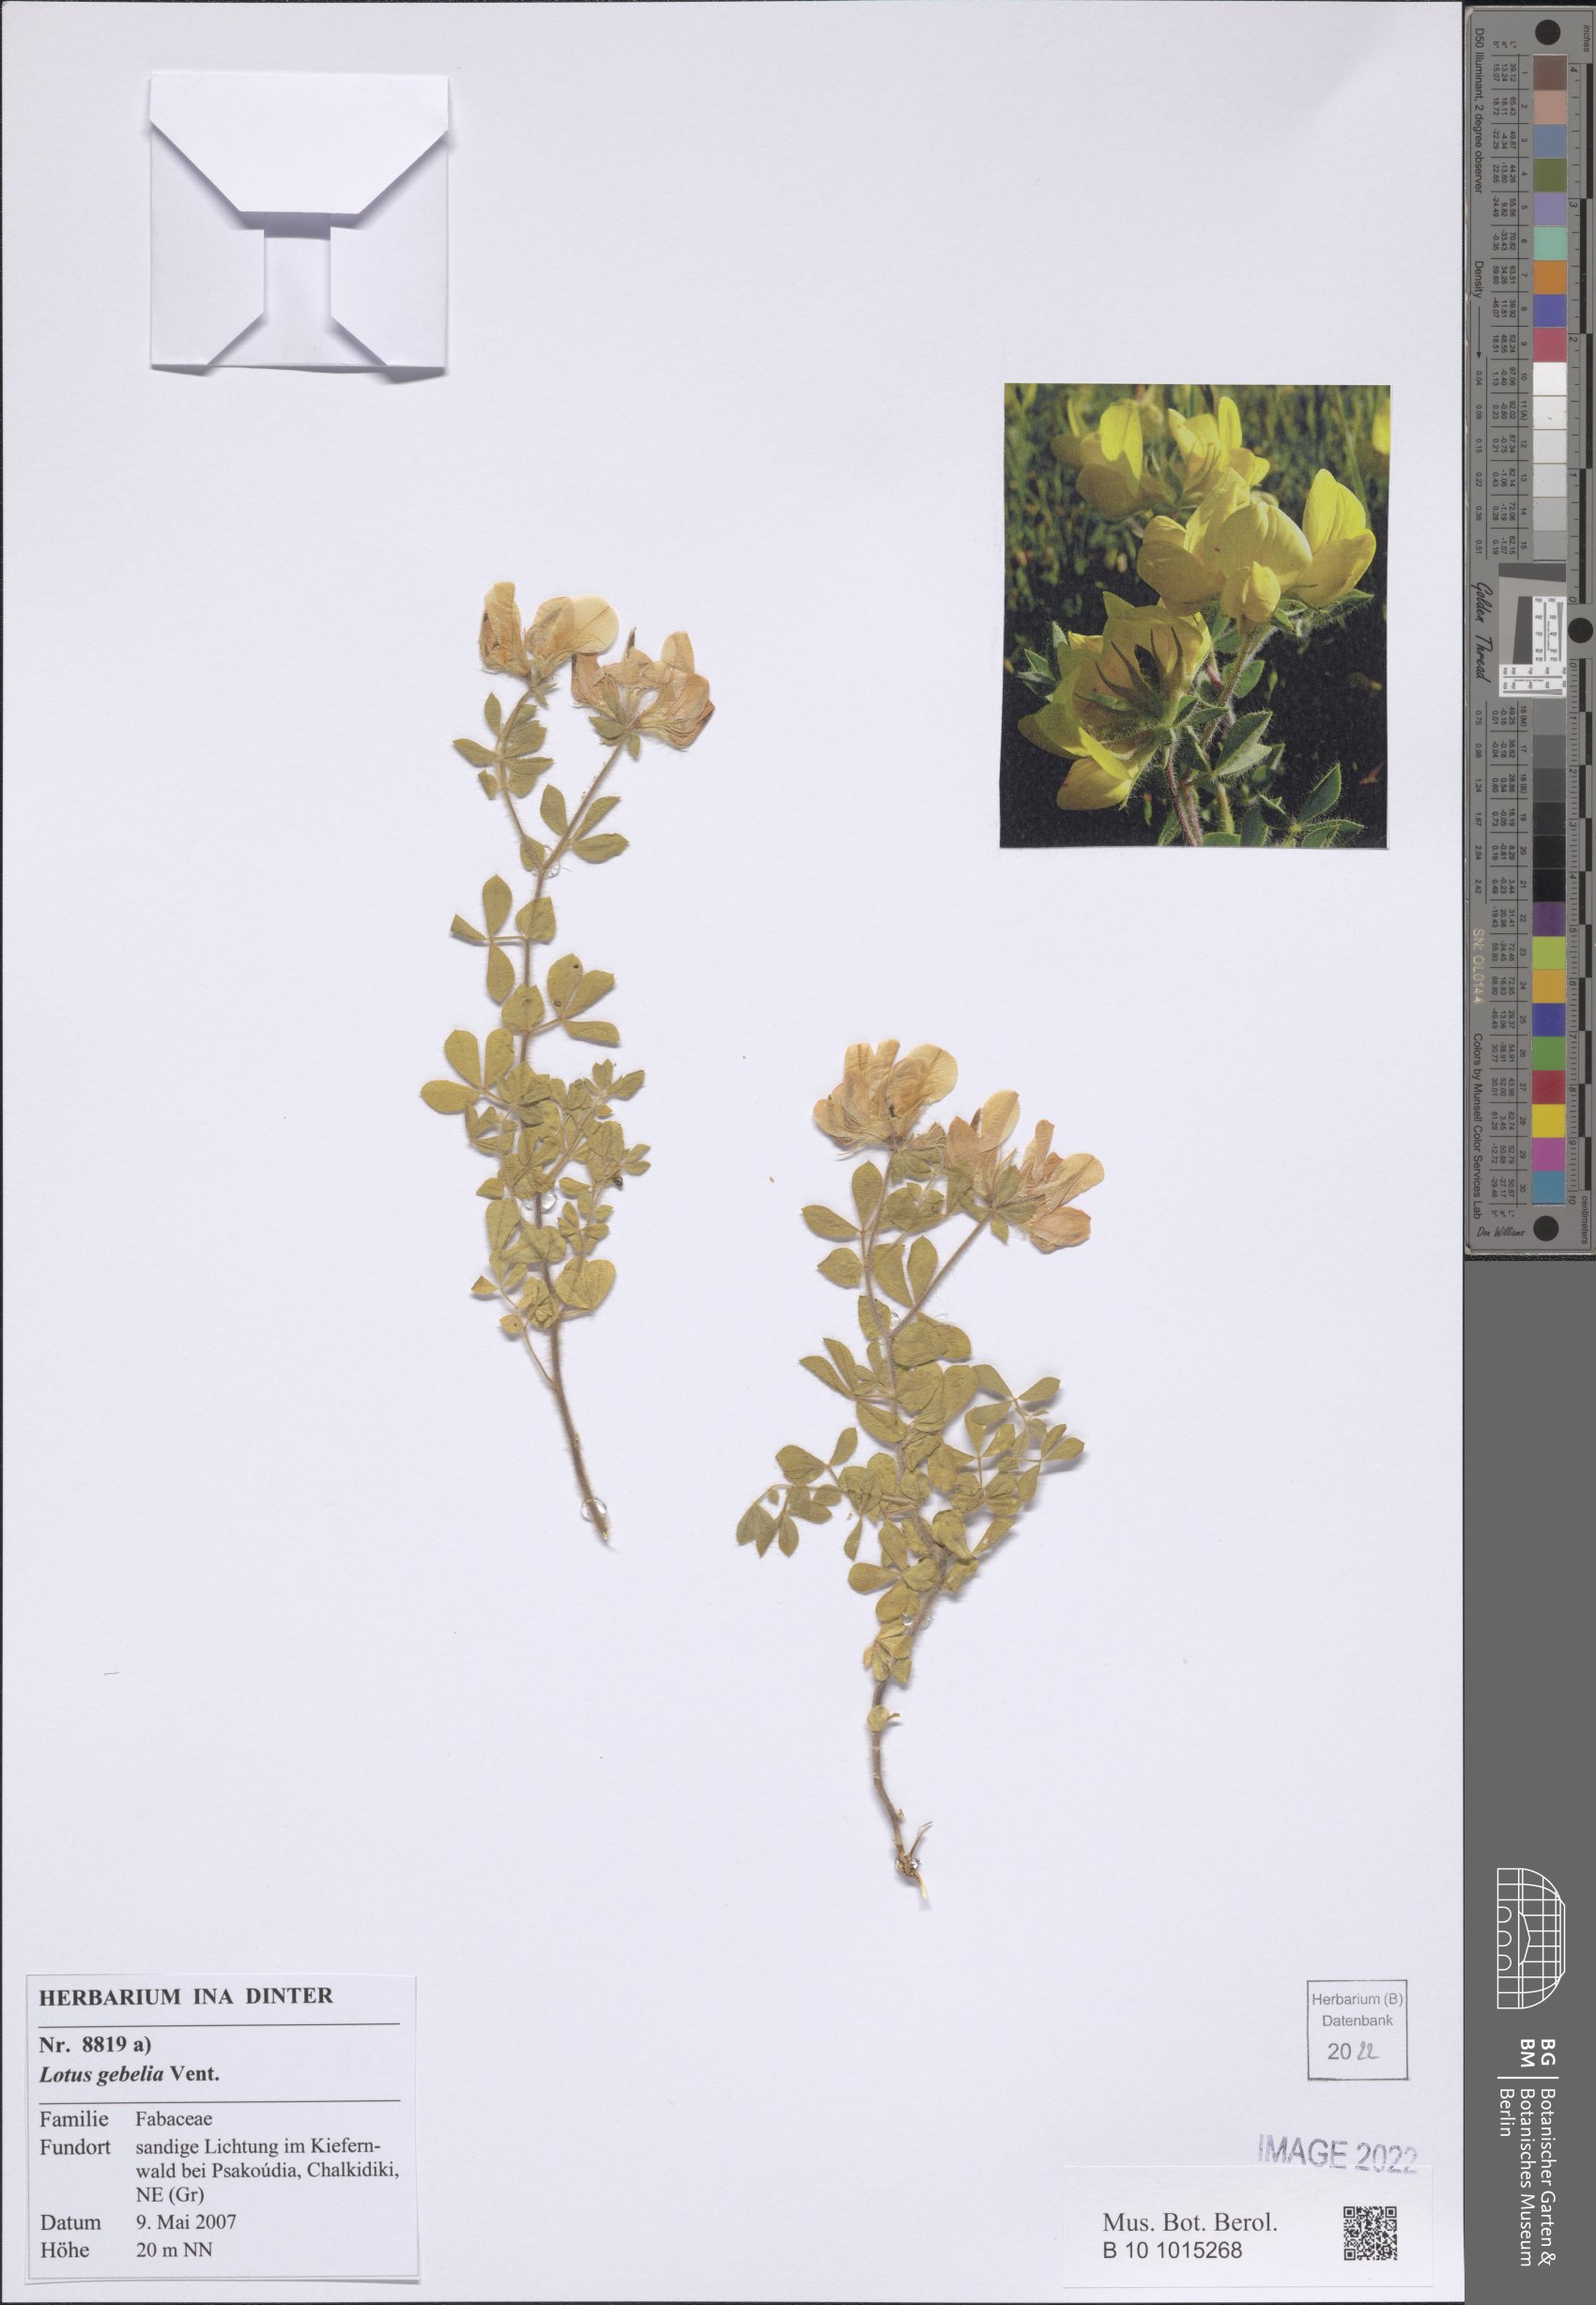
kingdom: Plantae
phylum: Tracheophyta
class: Magnoliopsida
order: Fabales
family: Fabaceae
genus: Lotus
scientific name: Lotus gebelia
